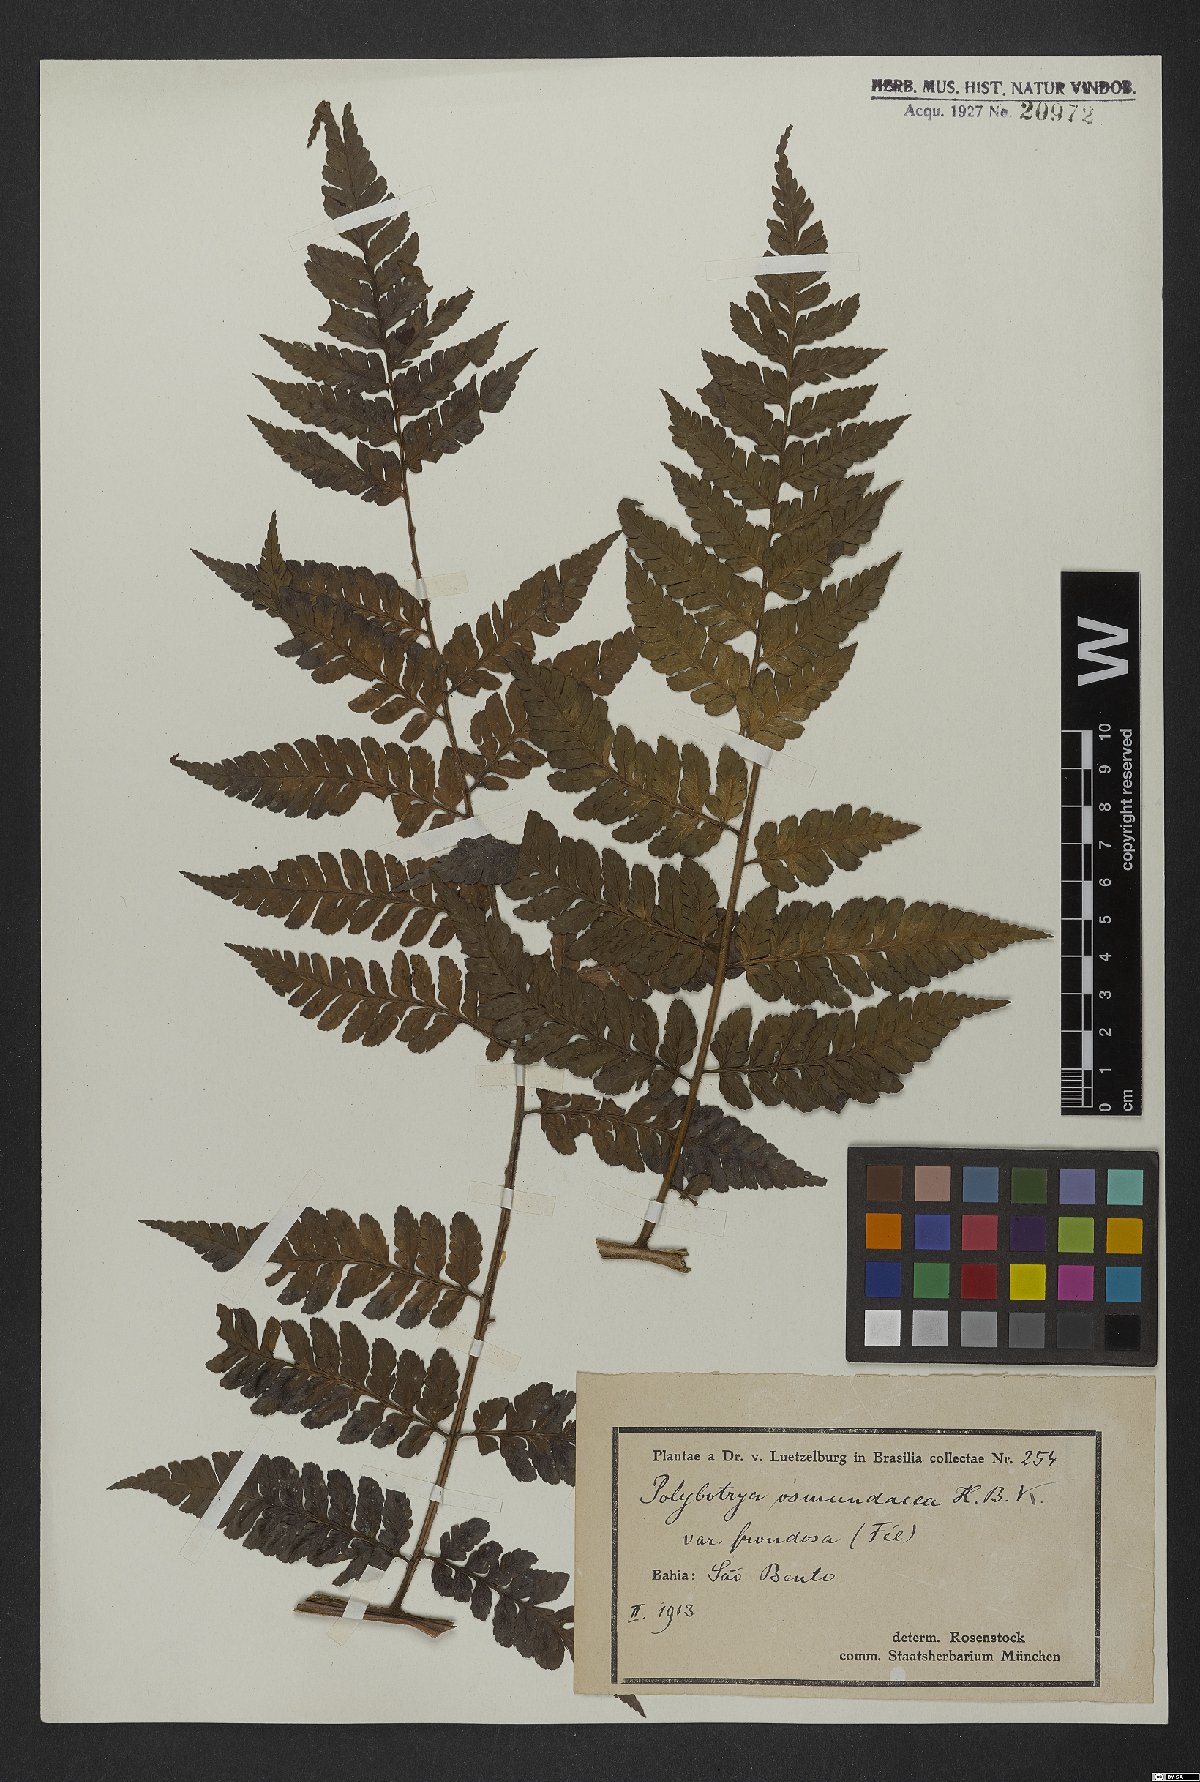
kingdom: Plantae
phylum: Tracheophyta
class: Polypodiopsida
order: Polypodiales
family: Dryopteridaceae
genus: Polybotrya
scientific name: Polybotrya cylindrica
